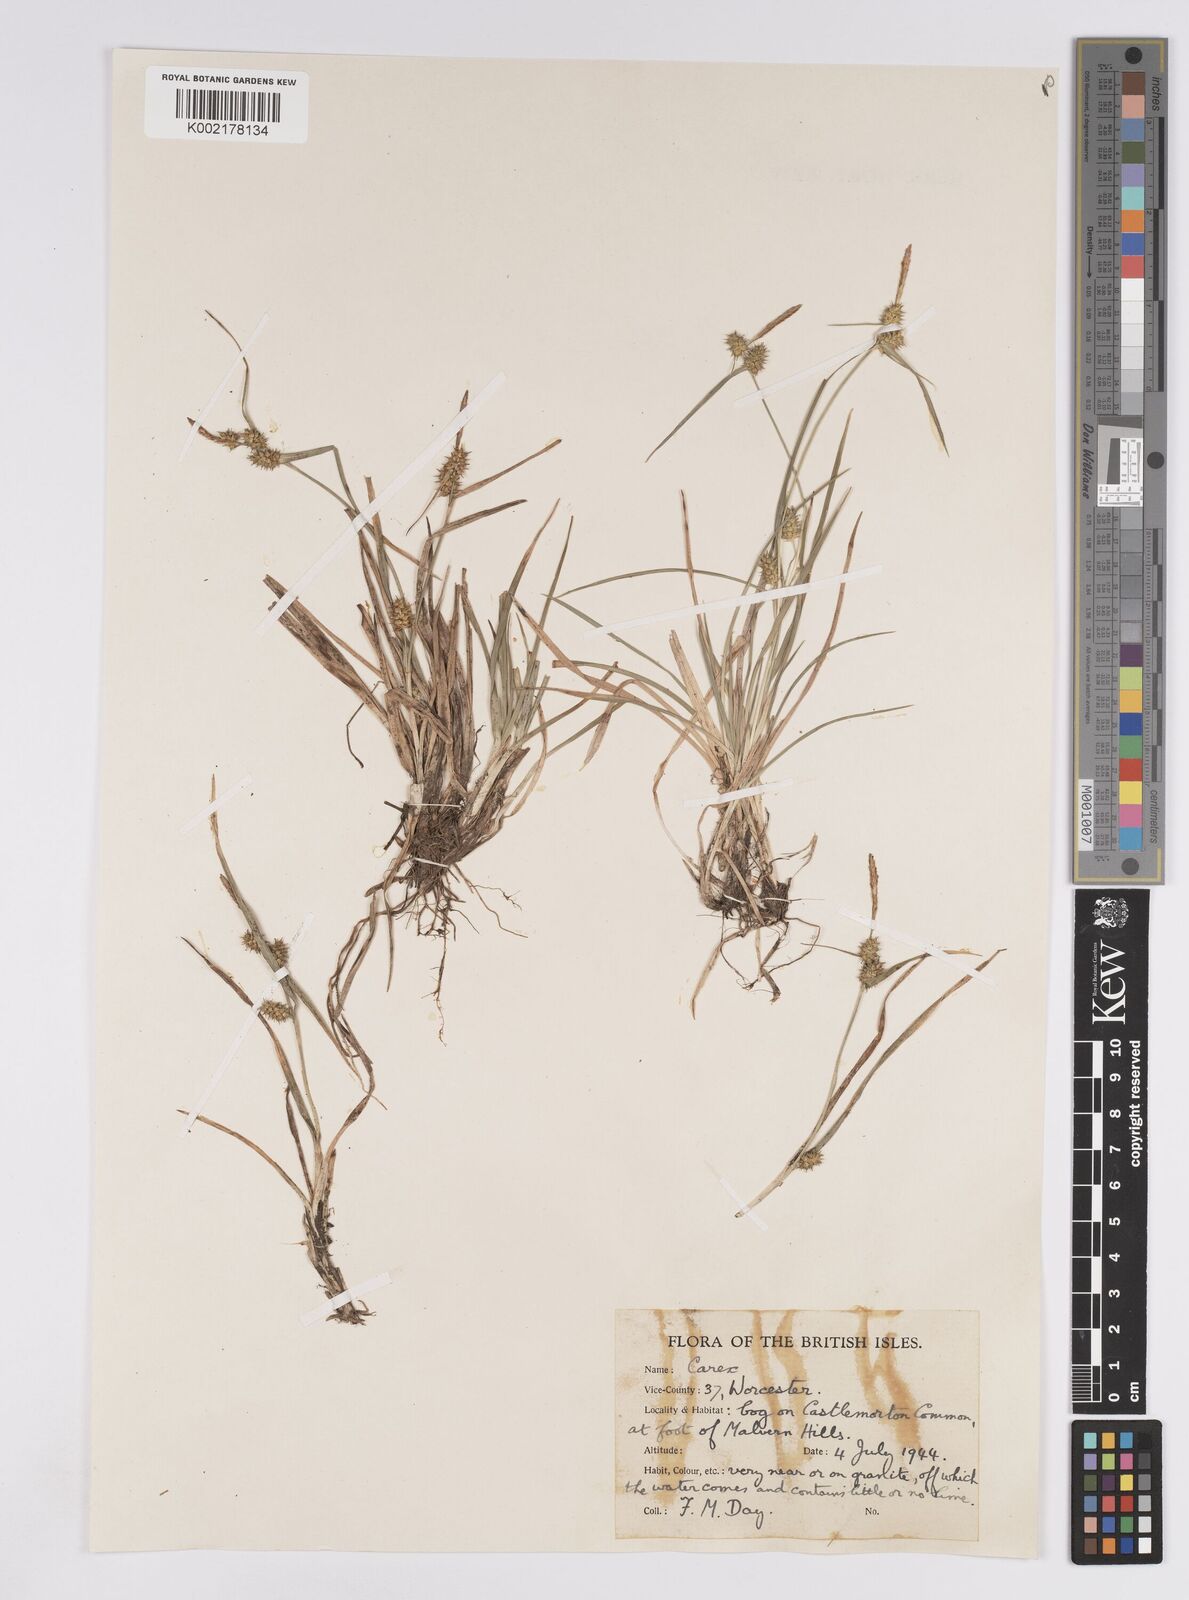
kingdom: Plantae
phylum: Tracheophyta
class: Liliopsida
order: Poales
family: Cyperaceae
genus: Carex
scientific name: Carex demissa
